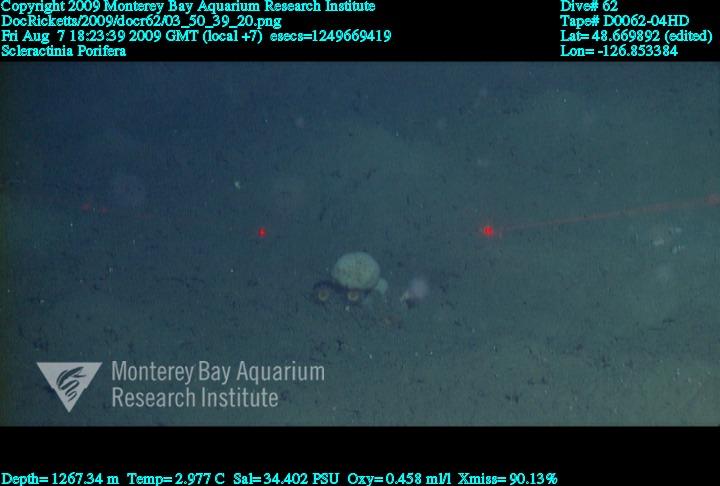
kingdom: Animalia
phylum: Porifera
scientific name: Porifera
